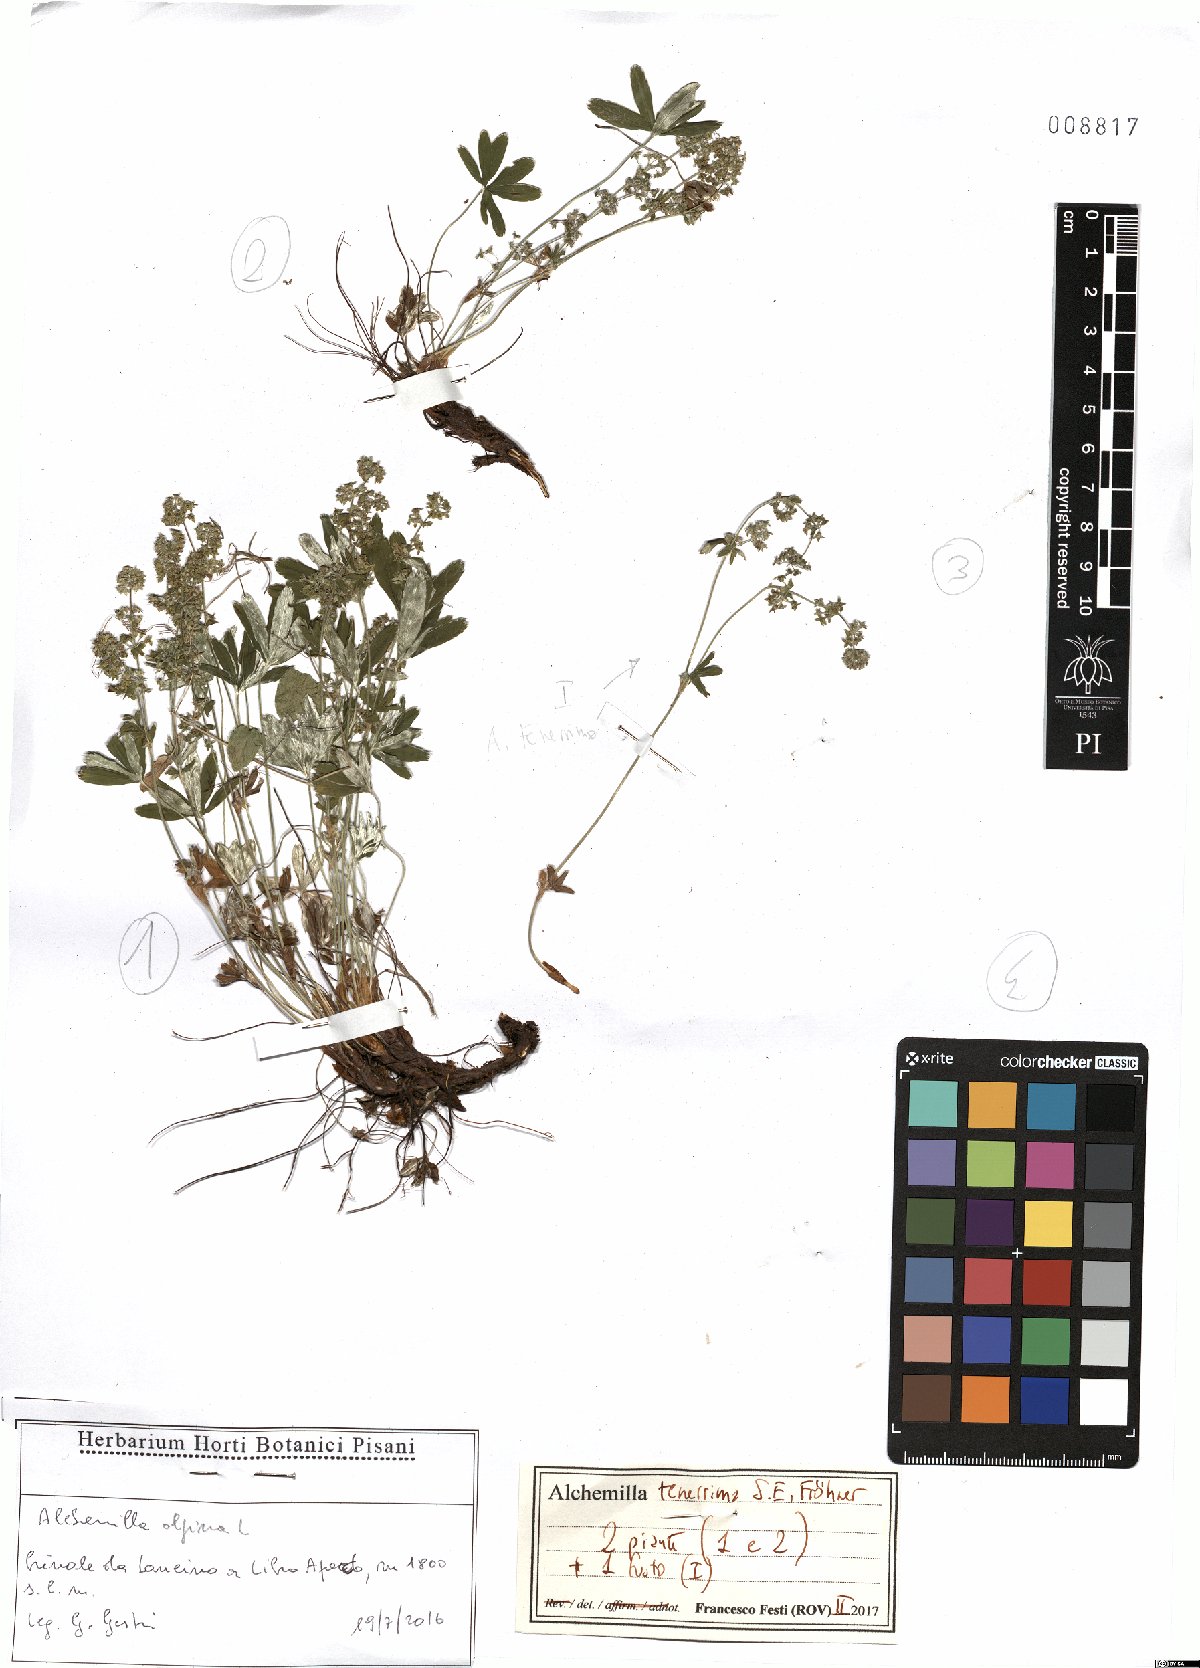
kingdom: Plantae
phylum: Tracheophyta
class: Magnoliopsida
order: Rosales
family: Rosaceae
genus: Alchemilla
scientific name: Alchemilla tenerrima
